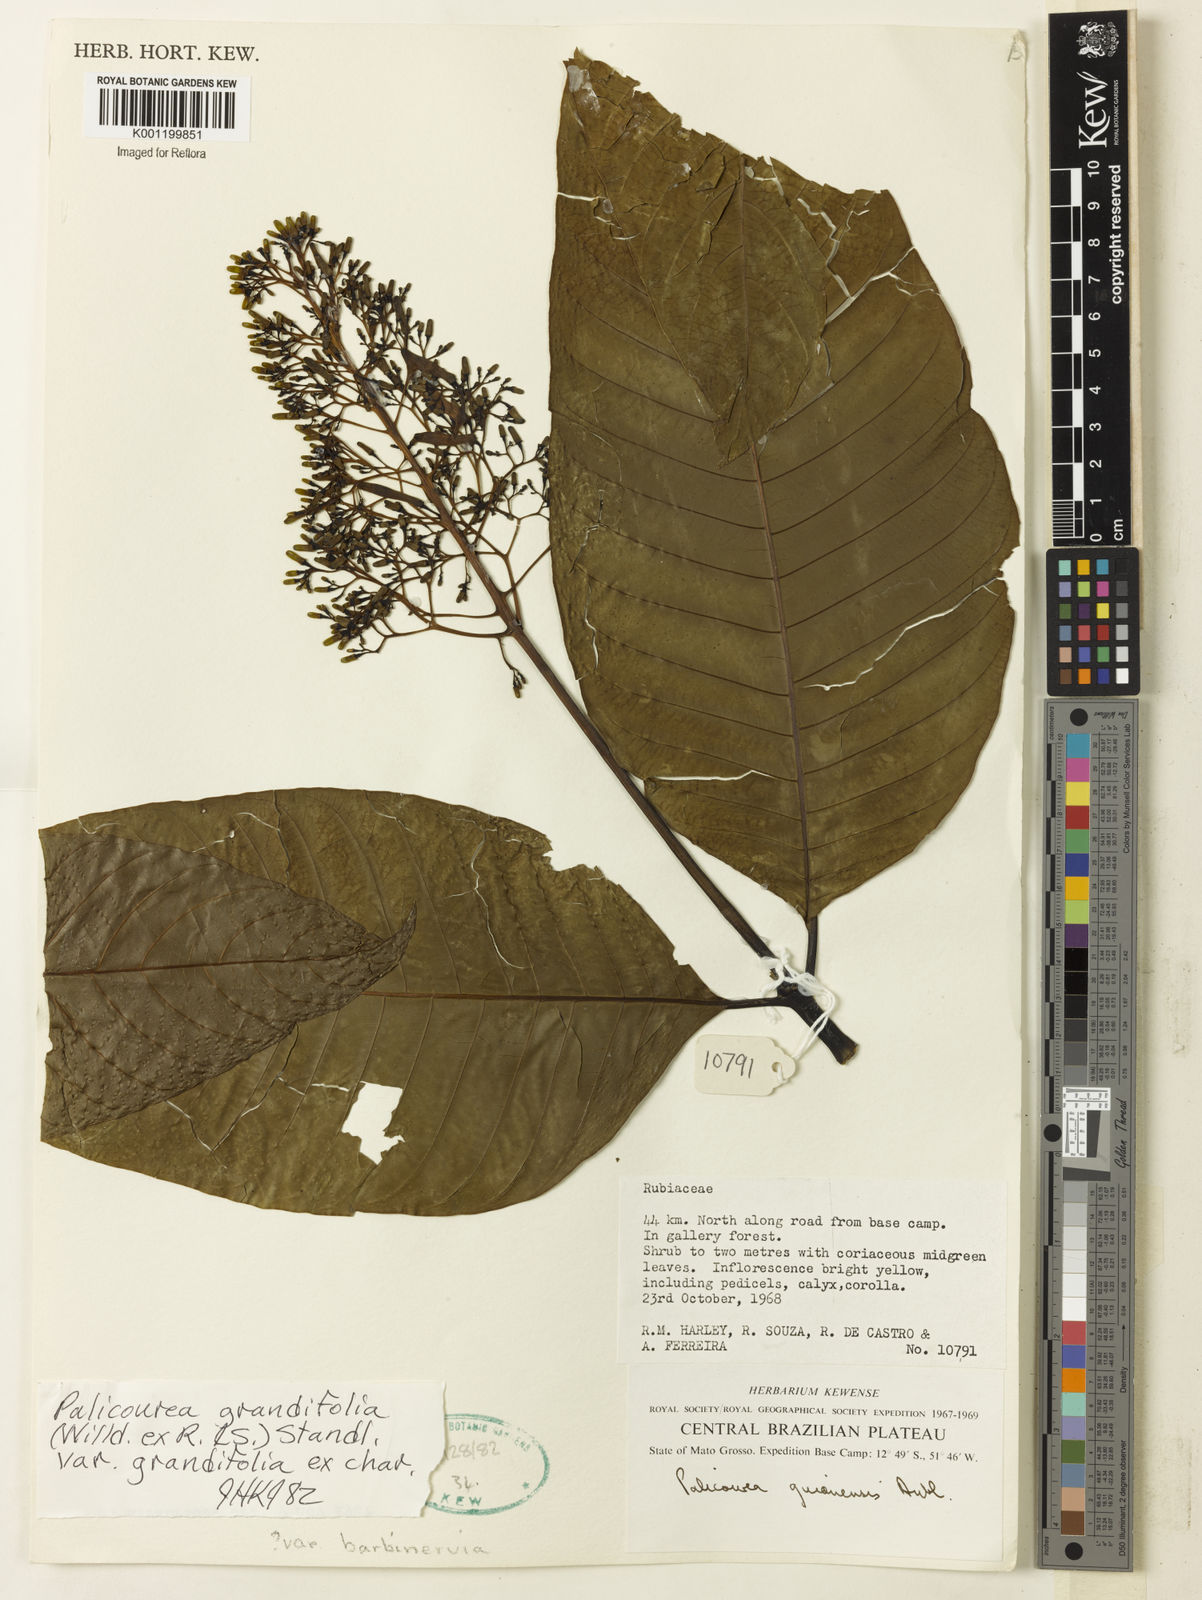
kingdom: Plantae
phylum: Tracheophyta
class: Magnoliopsida
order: Gentianales
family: Rubiaceae
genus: Palicourea
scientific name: Palicourea grandifolia
